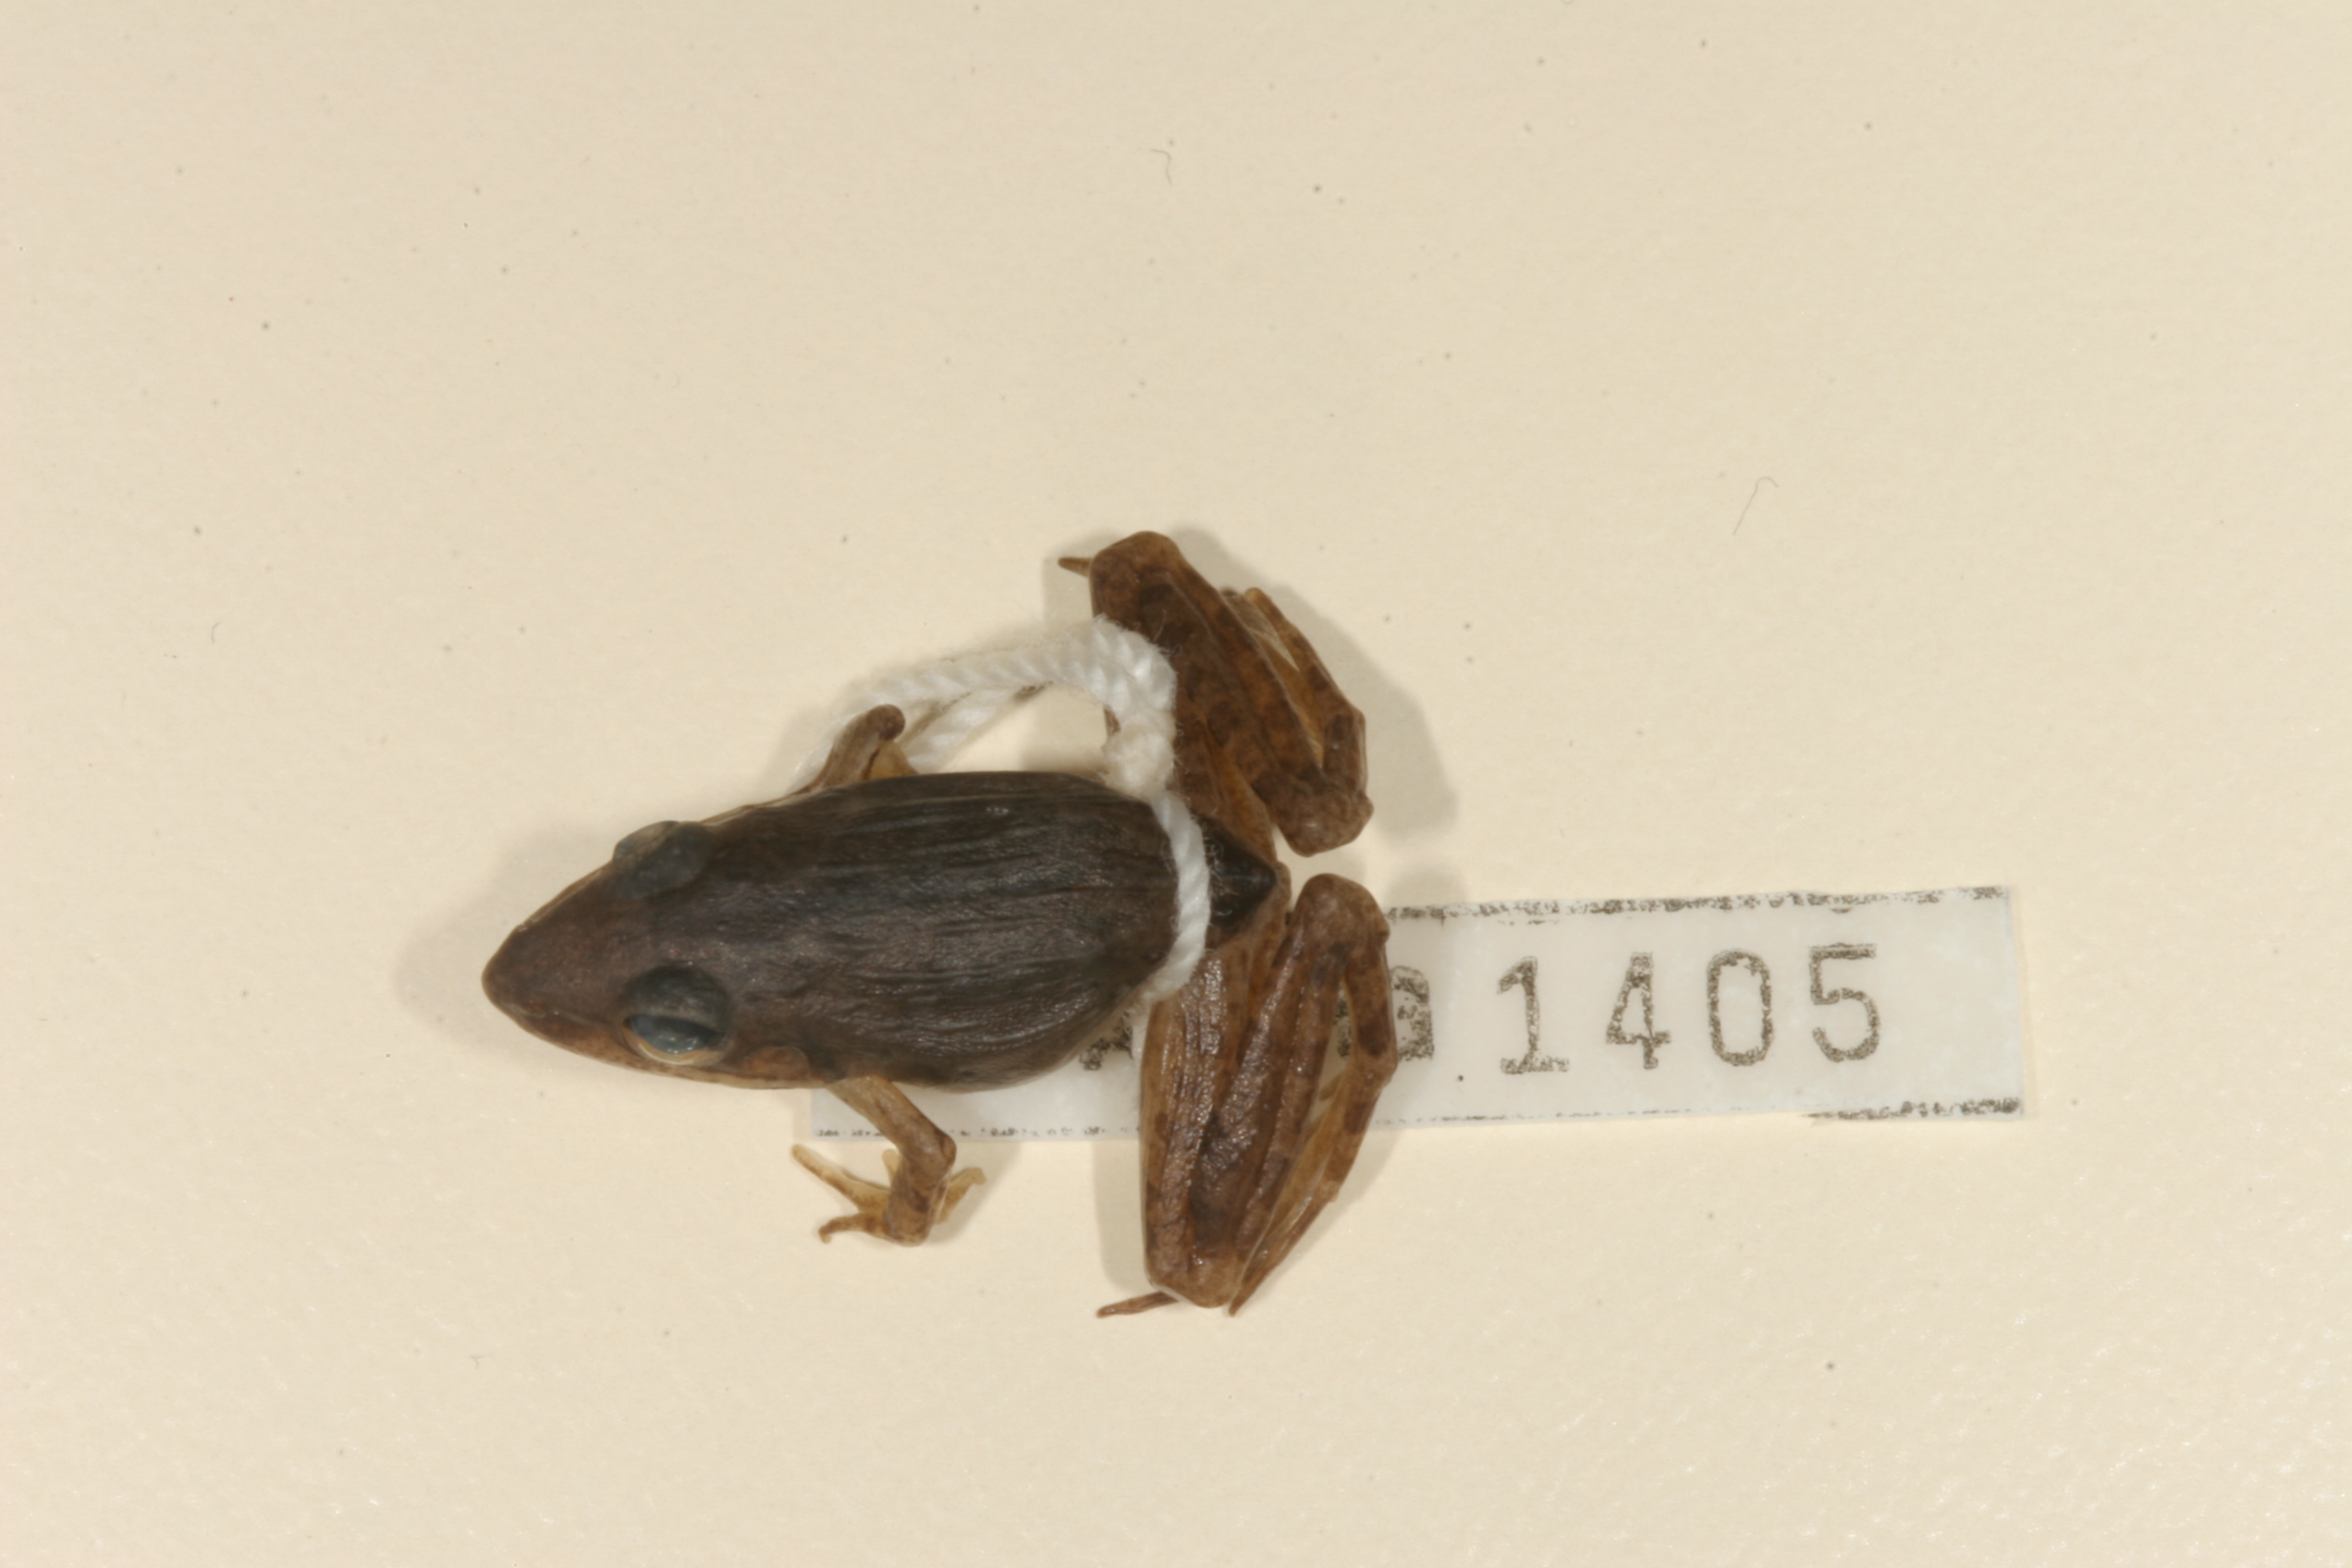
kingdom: Animalia
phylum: Chordata
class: Amphibia
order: Anura
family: Ptychadenidae
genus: Ptychadena
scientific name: Ptychadena anchietae
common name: Anchieta's ridged frog
